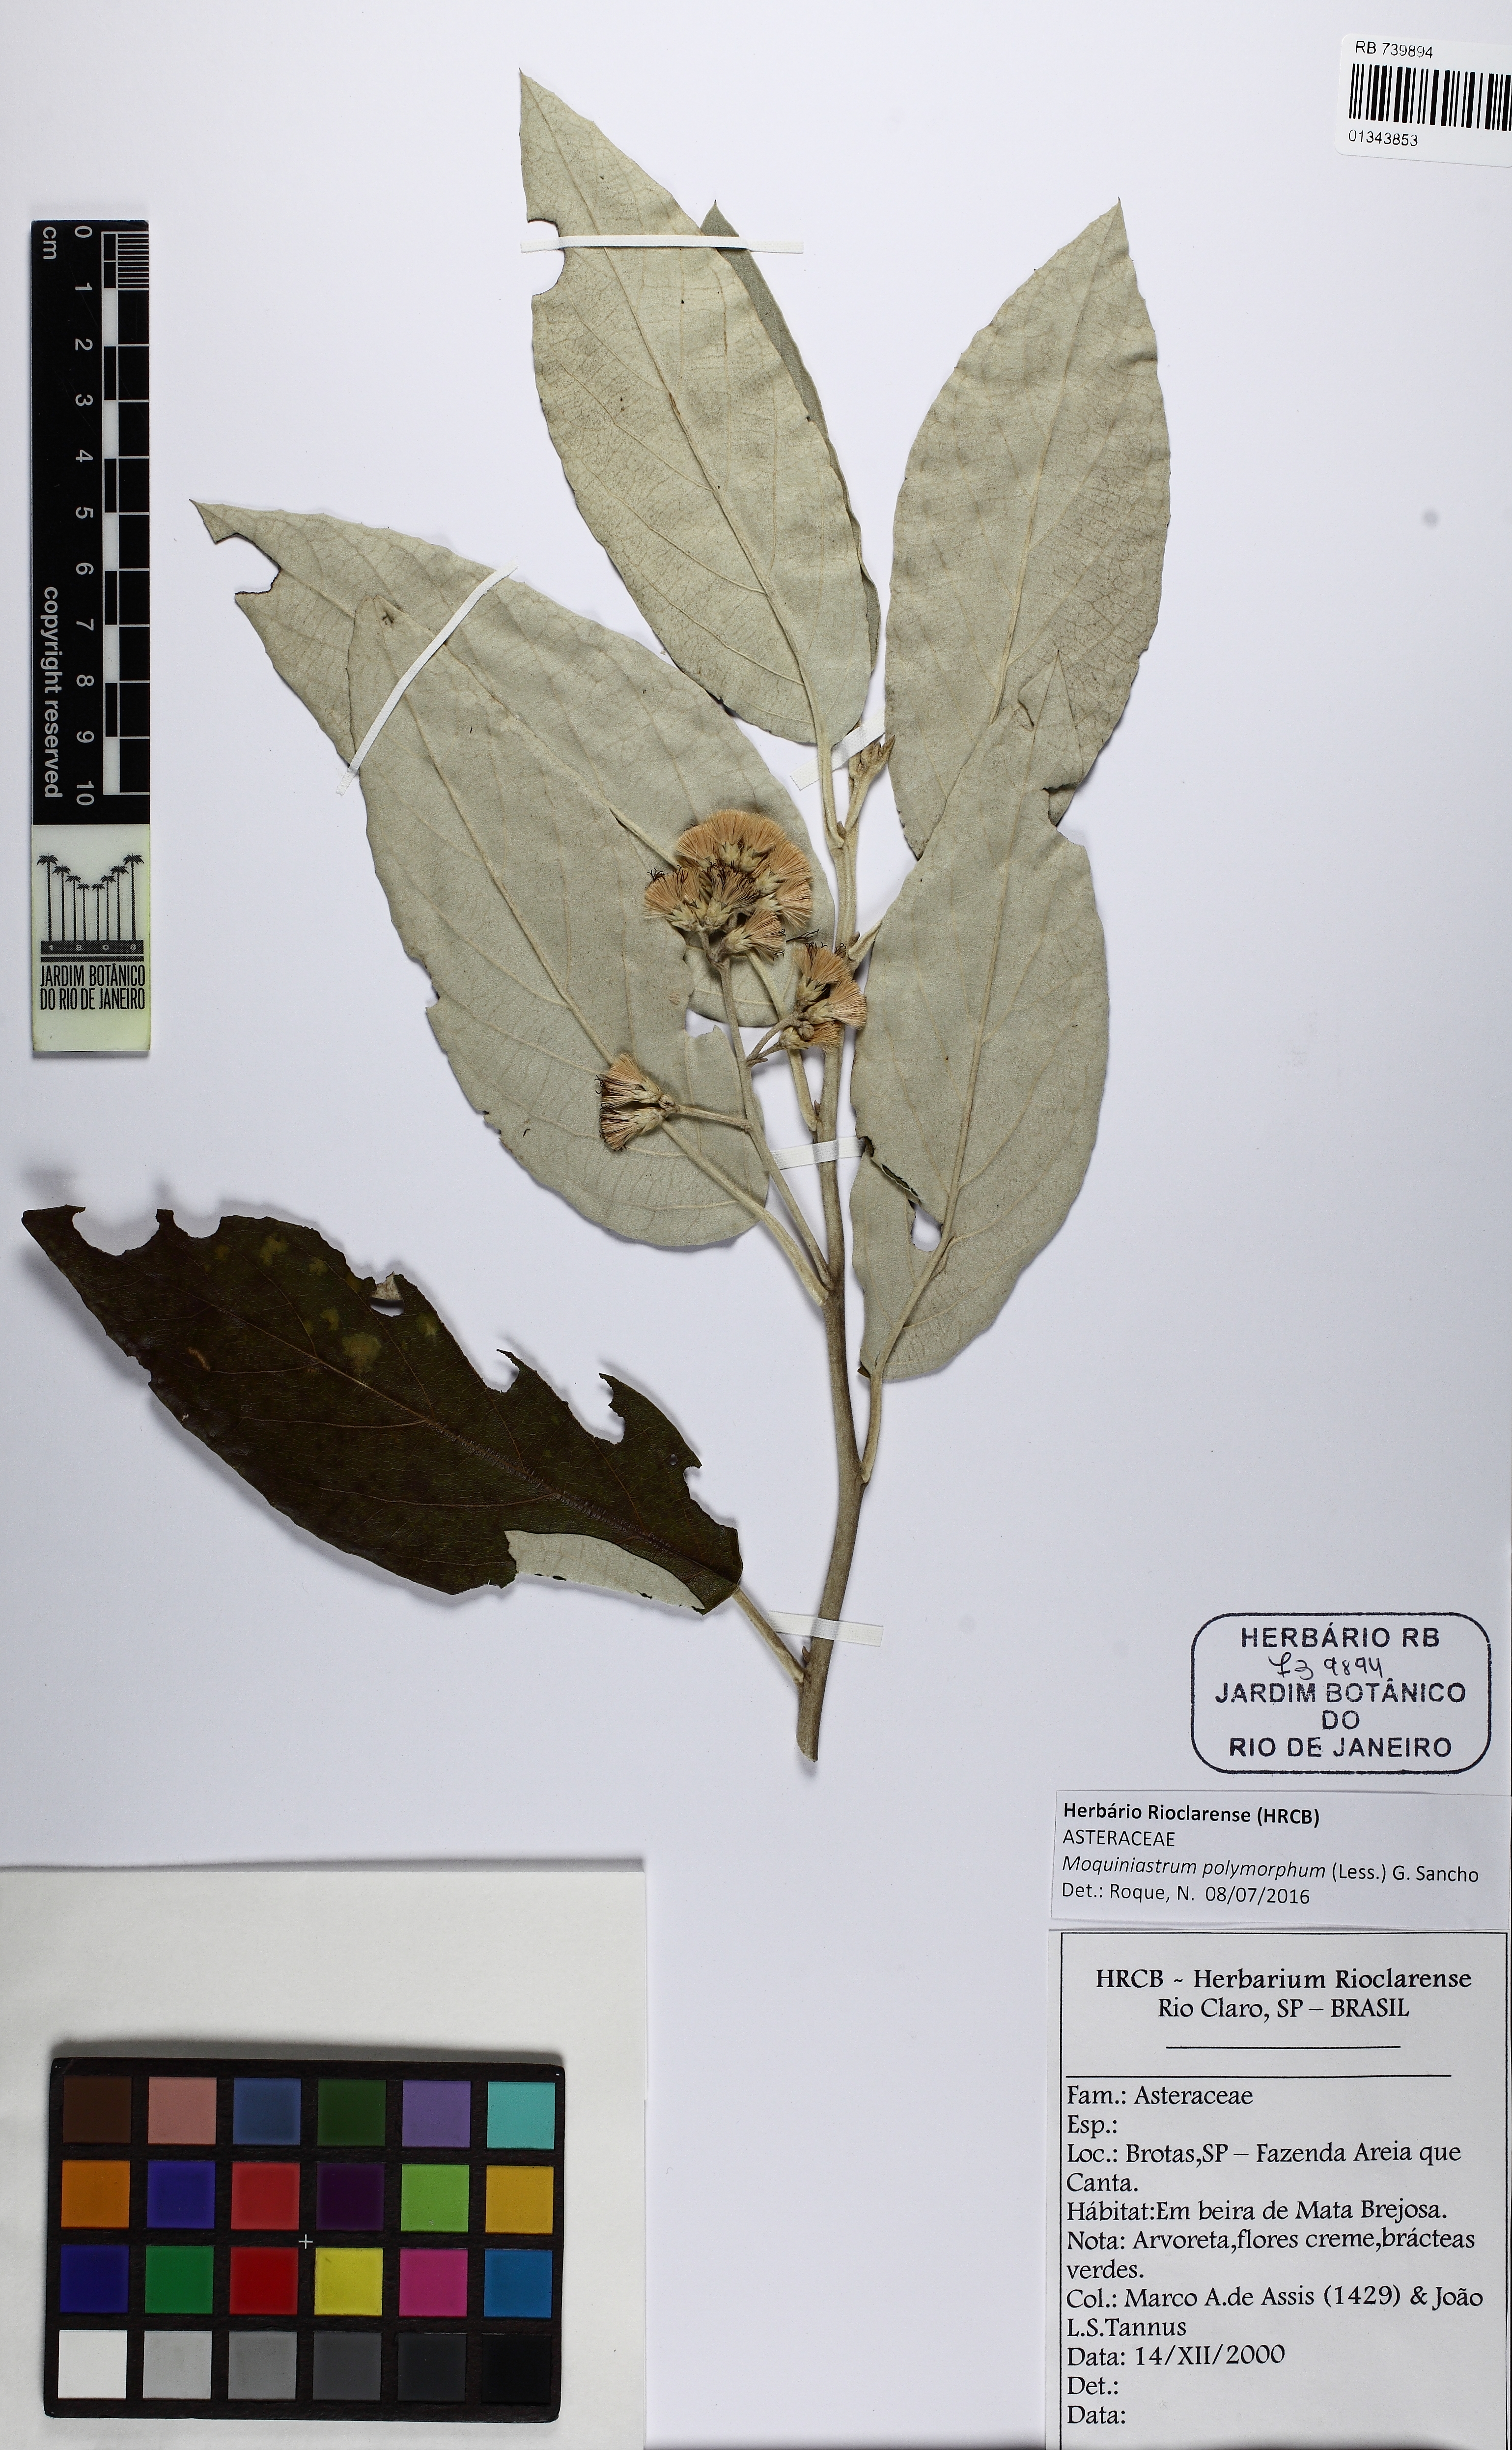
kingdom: Plantae
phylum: Tracheophyta
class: Magnoliopsida
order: Asterales
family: Asteraceae
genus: Moquiniastrum
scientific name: Moquiniastrum polymorphum
